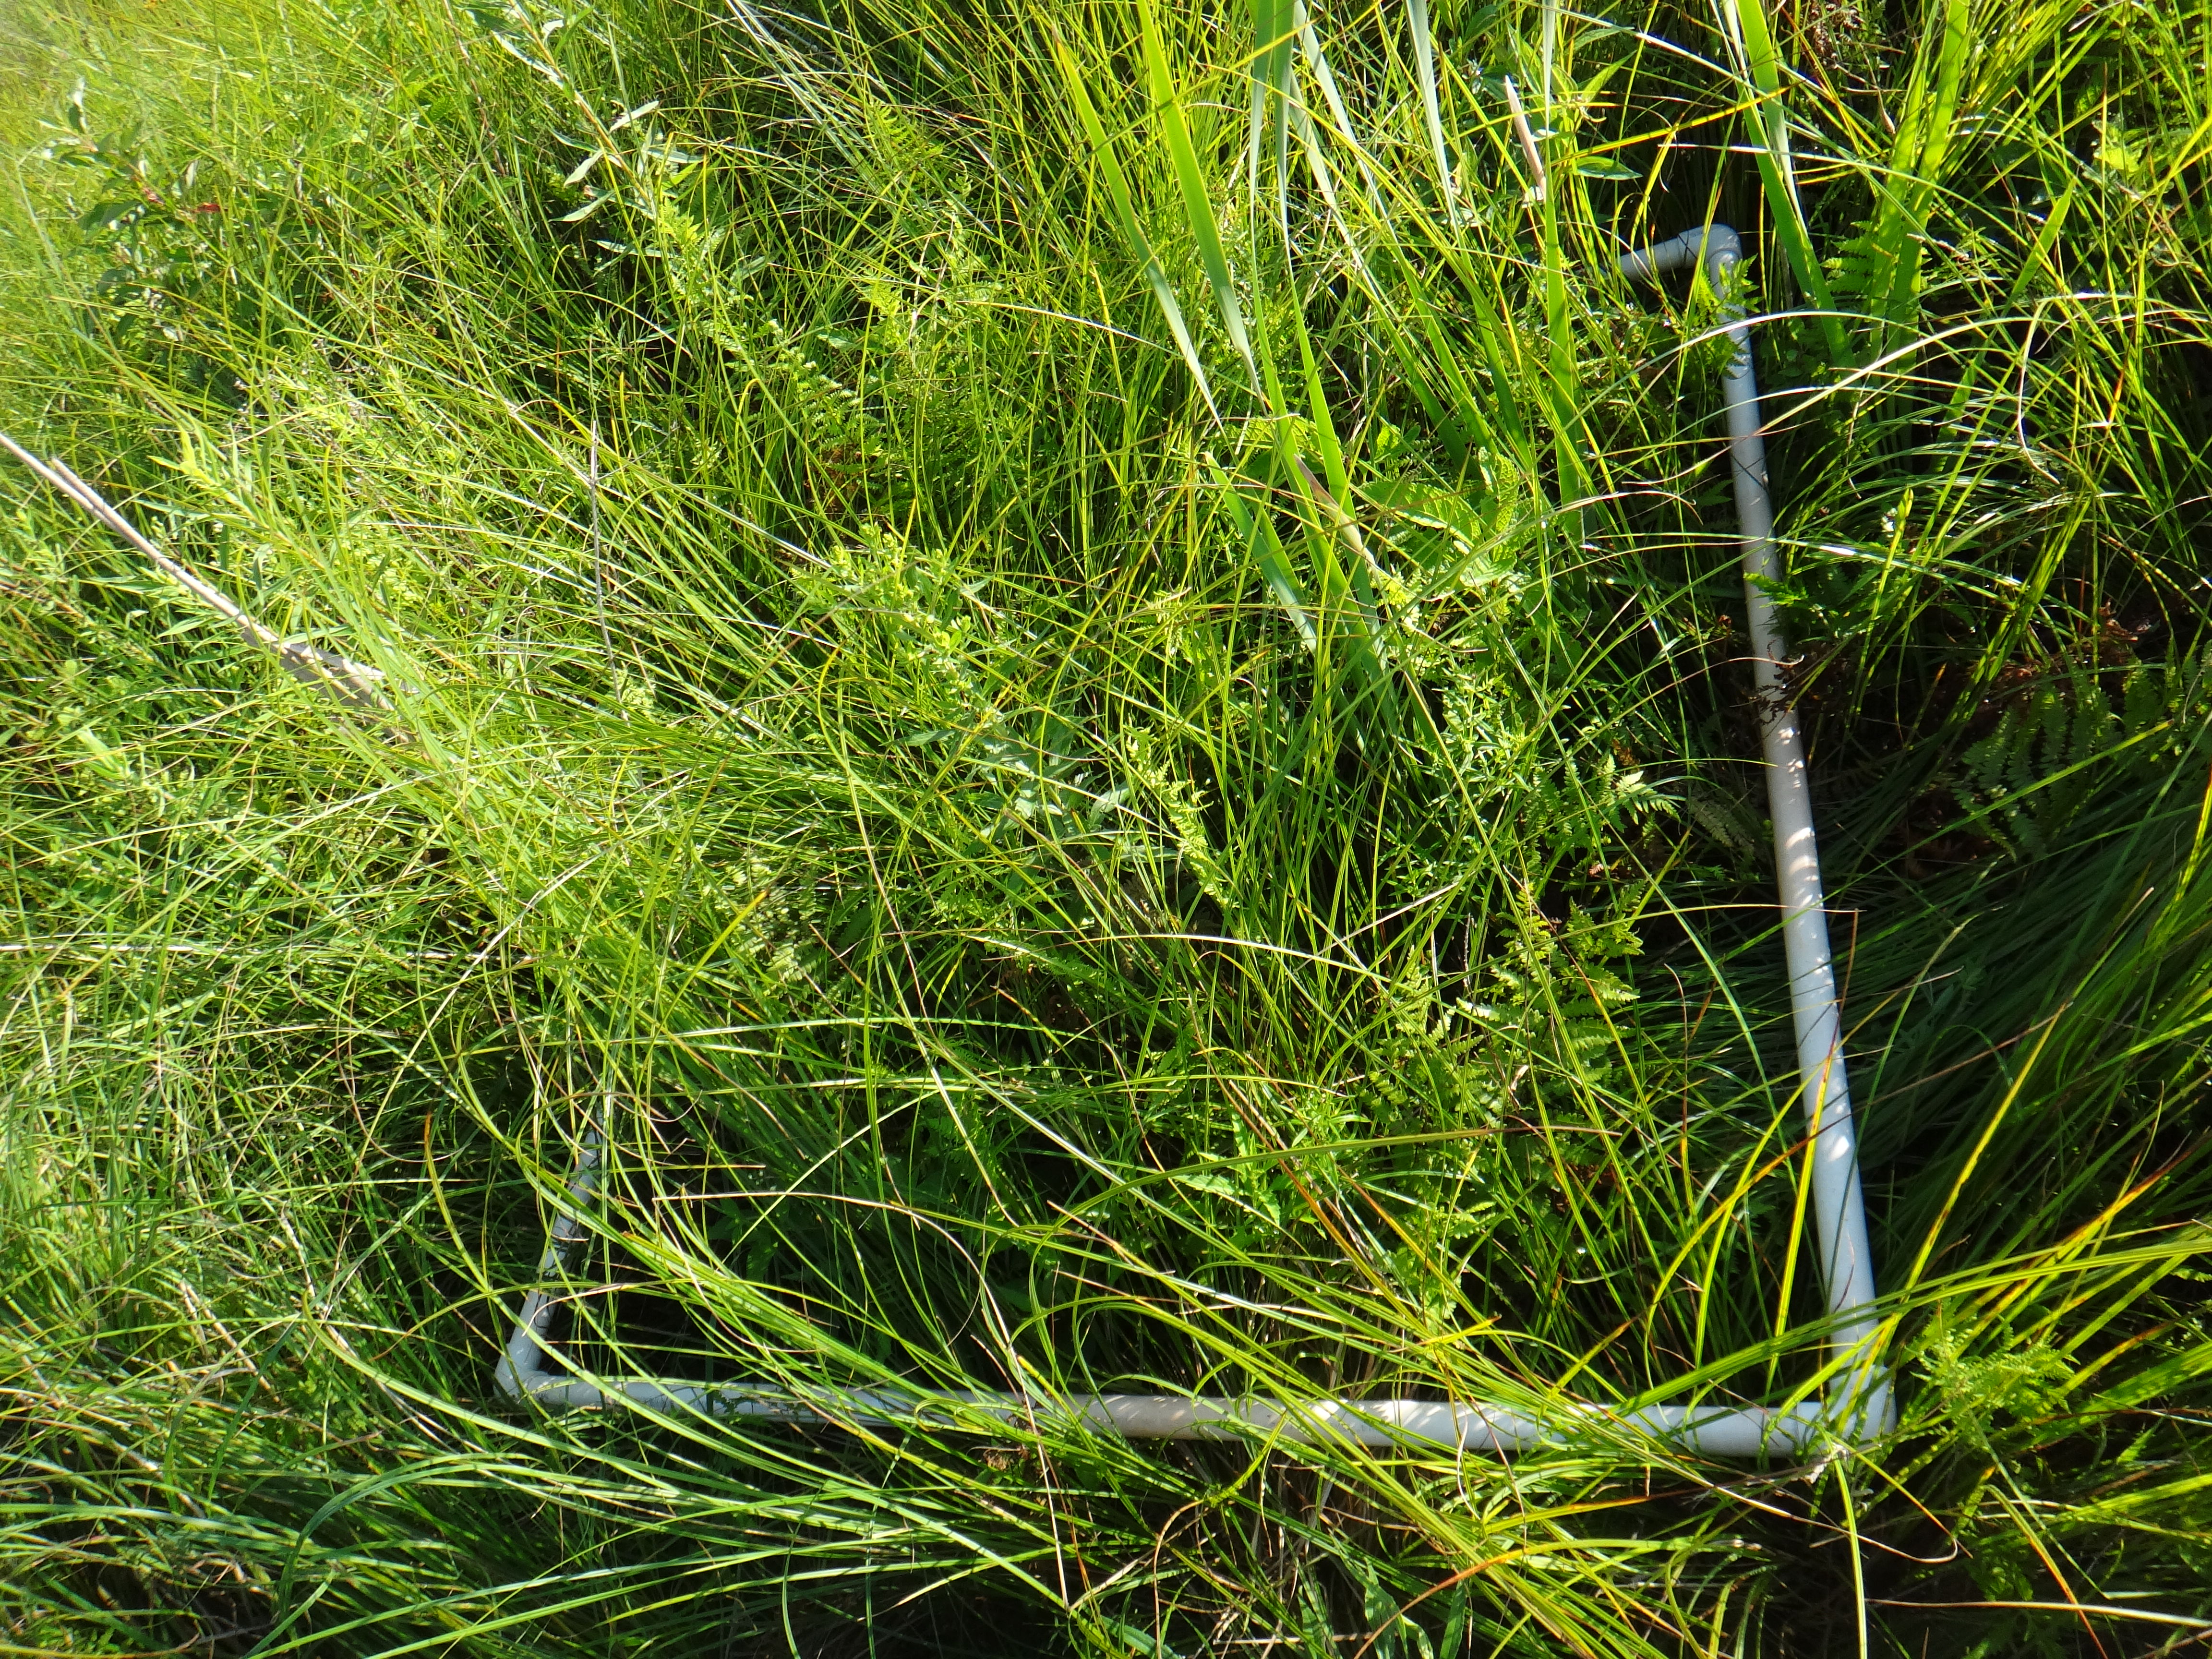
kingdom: Plantae
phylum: Tracheophyta
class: Magnoliopsida
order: Asterales
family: Asteraceae
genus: Solidago
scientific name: Solidago canadensis
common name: Canada goldenrod
